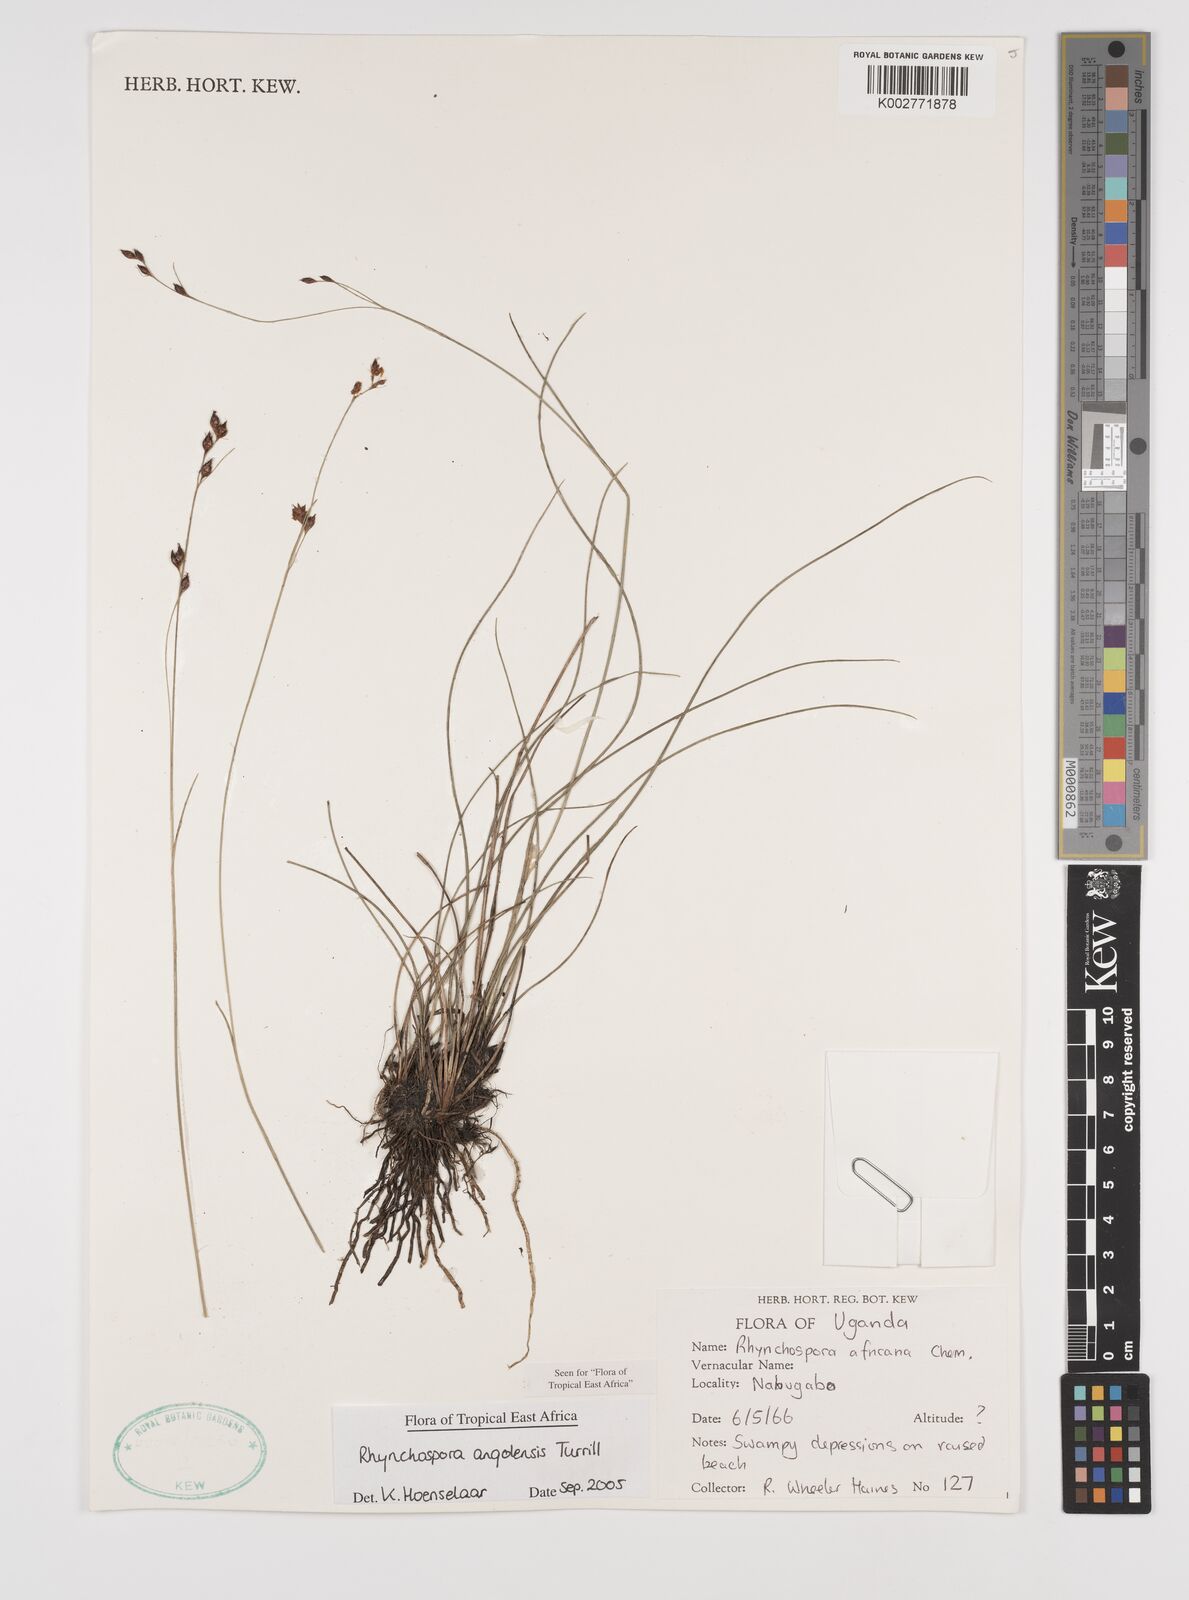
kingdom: Plantae
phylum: Tracheophyta
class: Liliopsida
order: Poales
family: Cyperaceae
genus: Rhynchospora
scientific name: Rhynchospora angolensis
